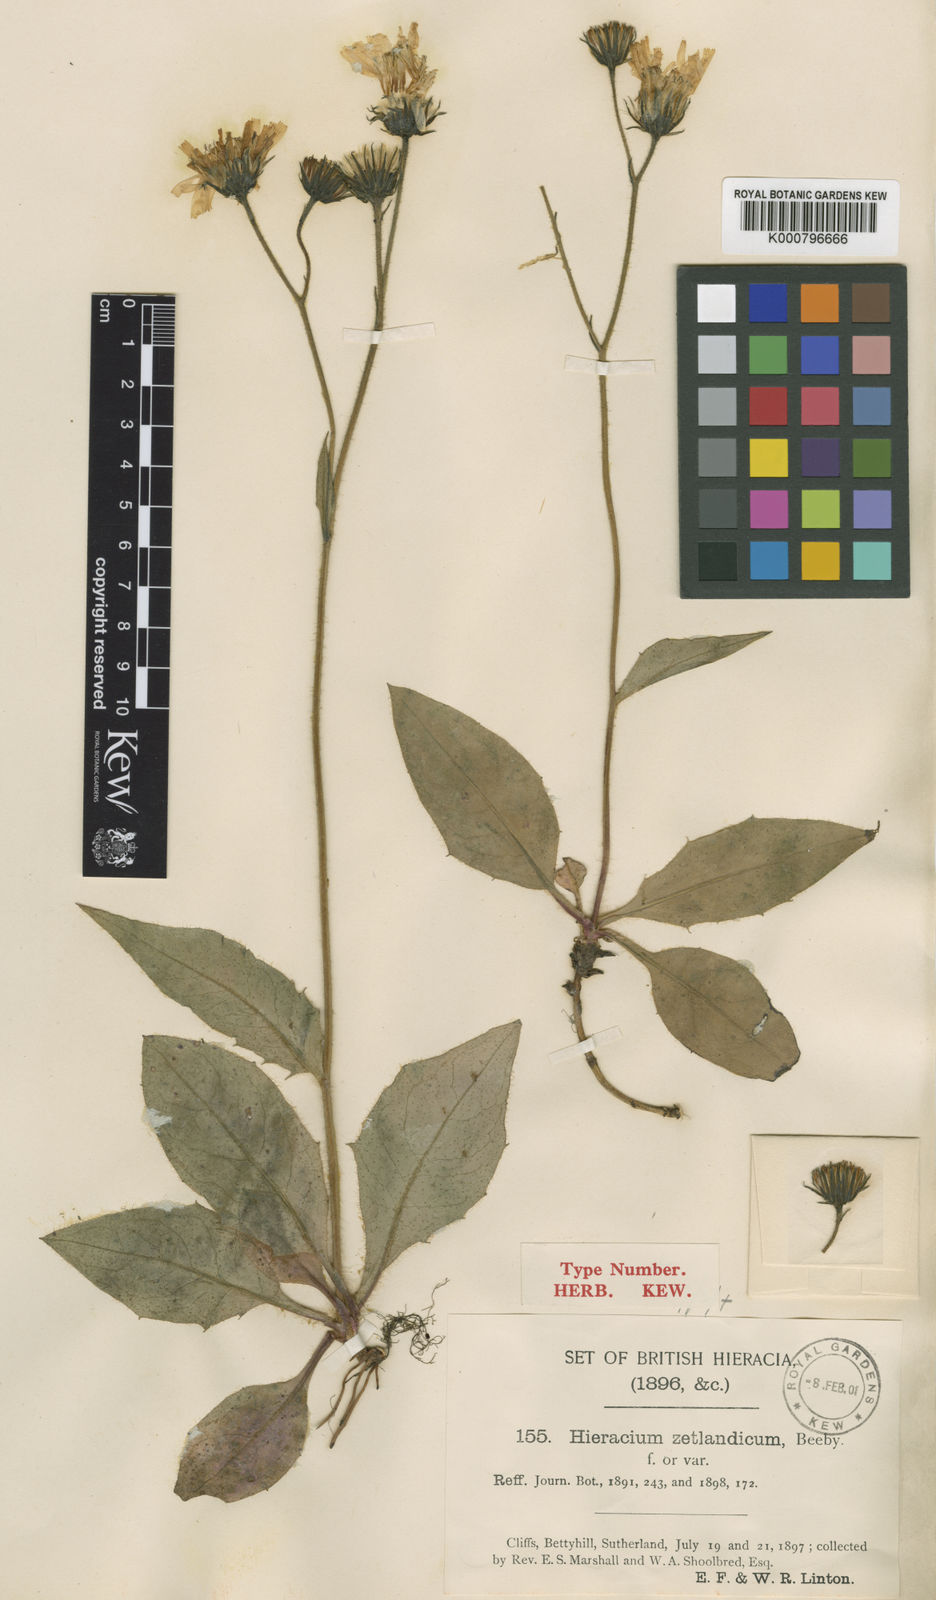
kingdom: Plantae
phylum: Tracheophyta
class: Magnoliopsida
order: Asterales
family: Asteraceae
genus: Hieracium
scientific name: Hieracium caledonicum
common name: Caledonian hawkweed
